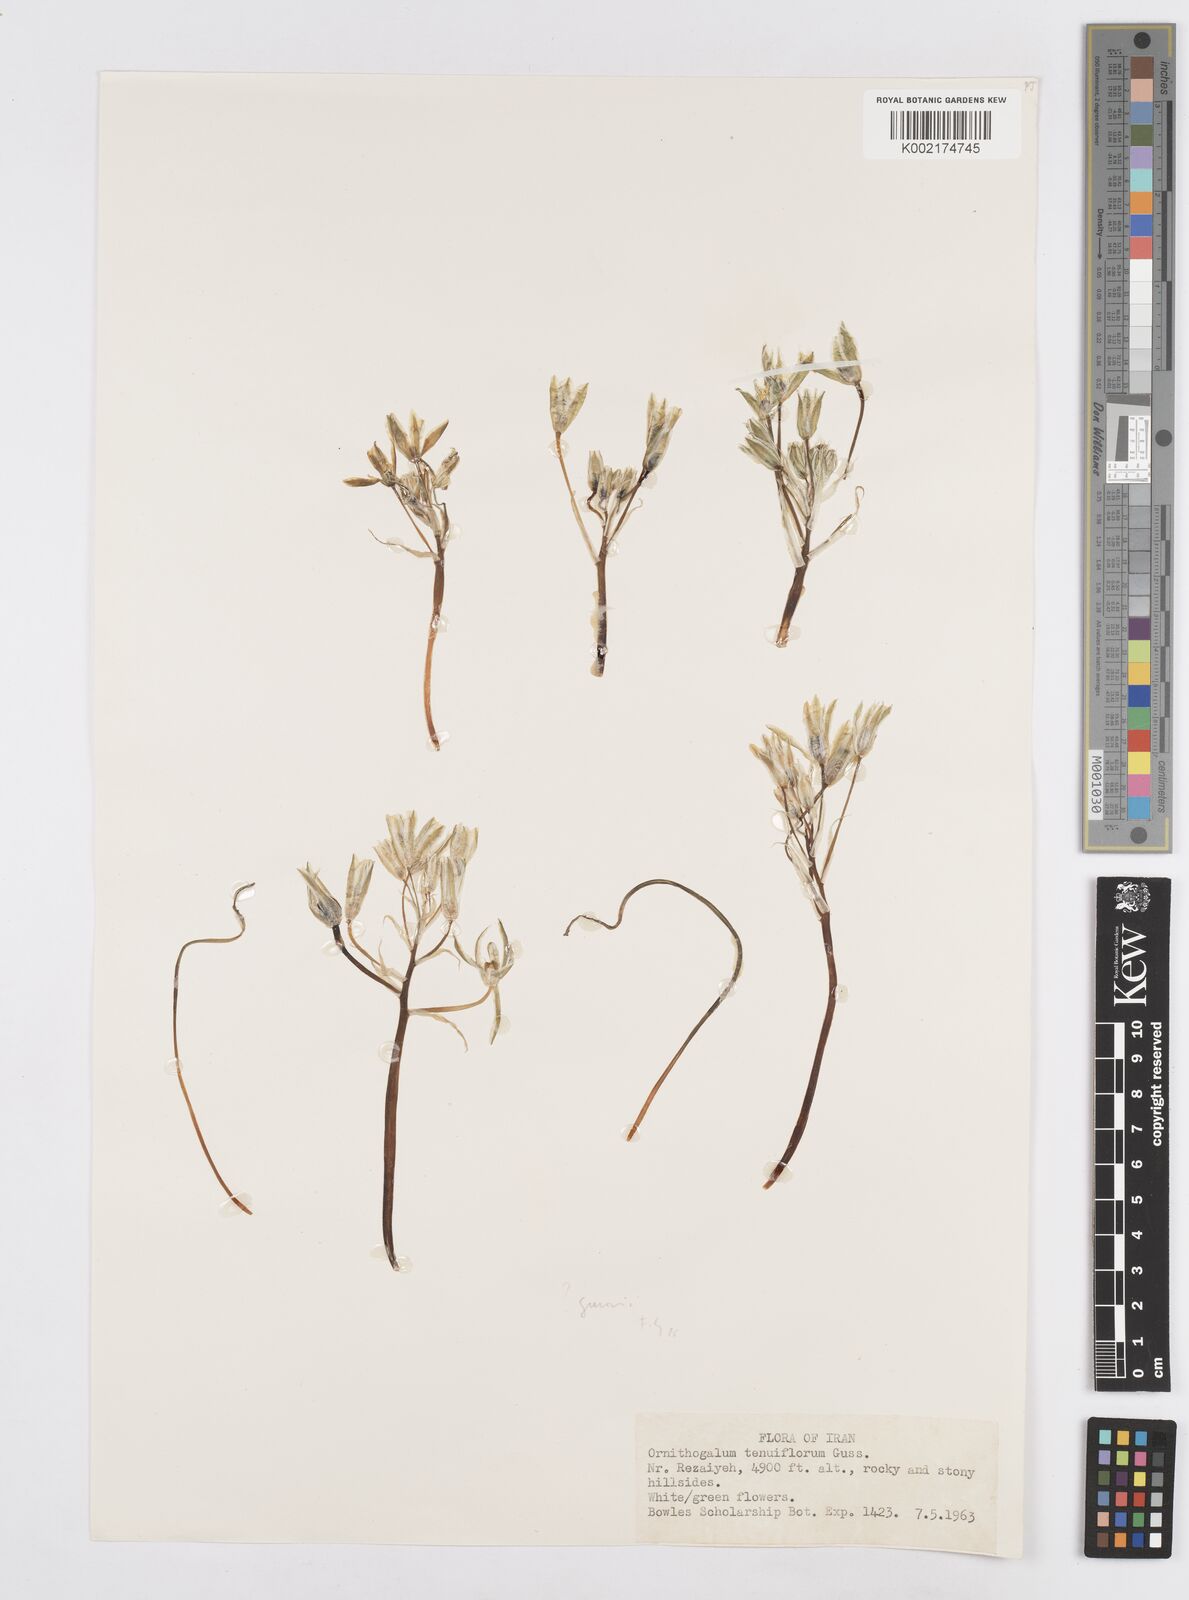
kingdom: Plantae
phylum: Tracheophyta
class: Liliopsida
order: Asparagales
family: Asparagaceae
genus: Ornithogalum
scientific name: Ornithogalum gussonei
